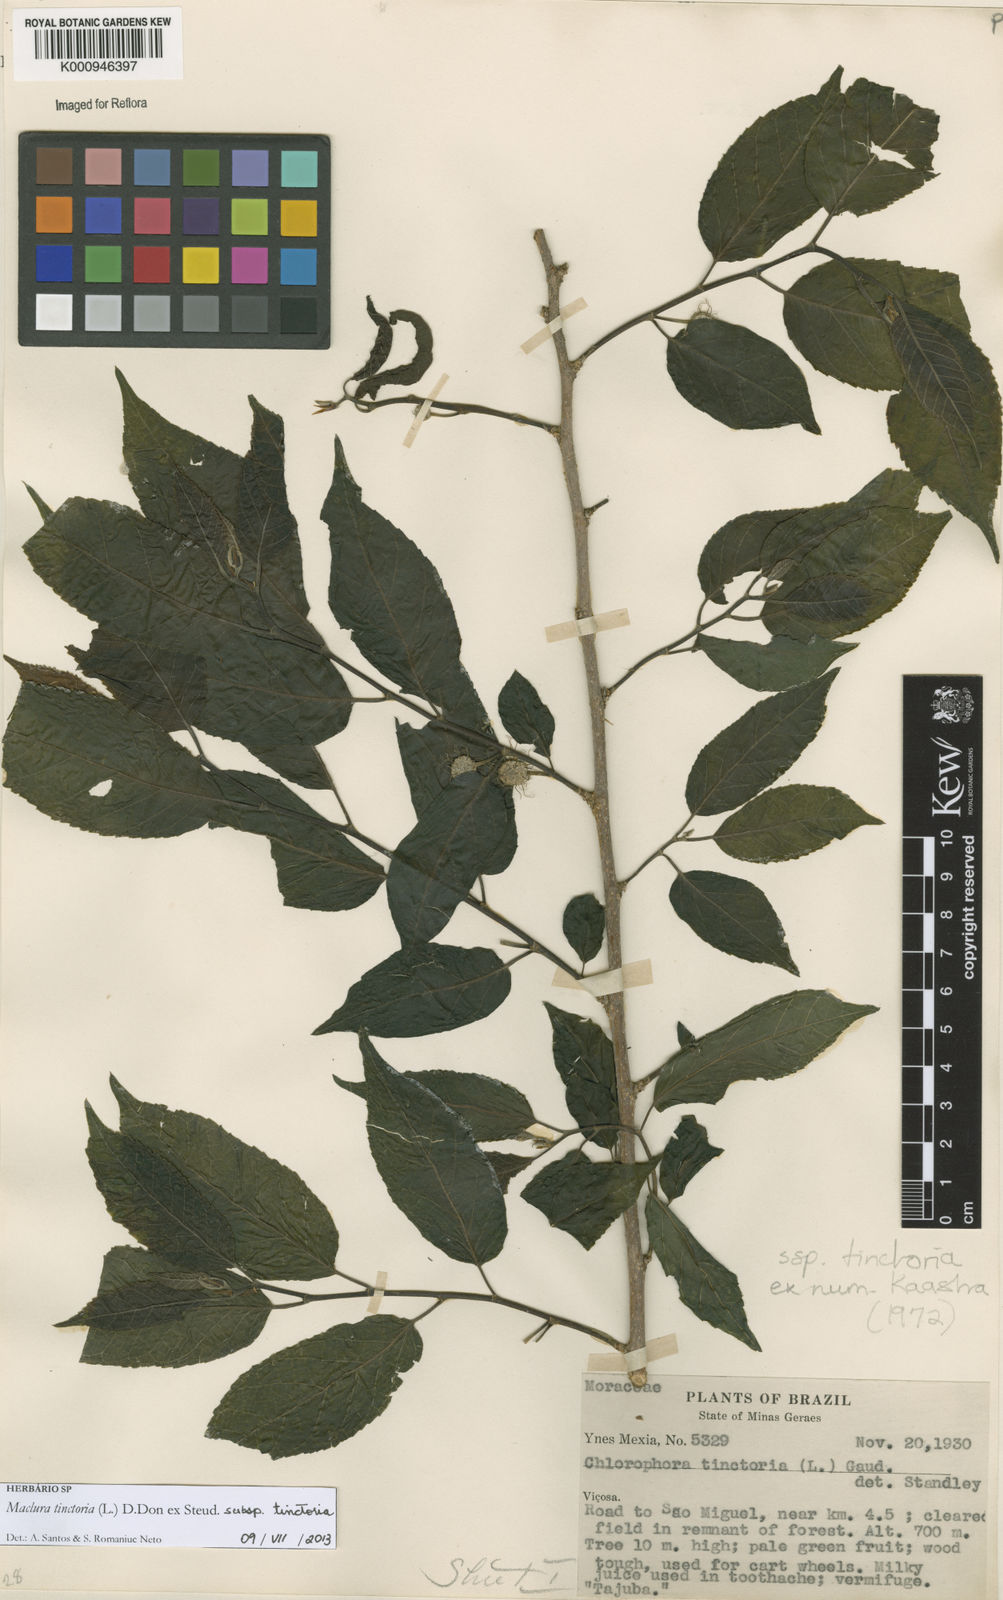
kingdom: Plantae
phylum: Tracheophyta
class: Magnoliopsida
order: Rosales
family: Moraceae
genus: Maclura
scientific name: Maclura
